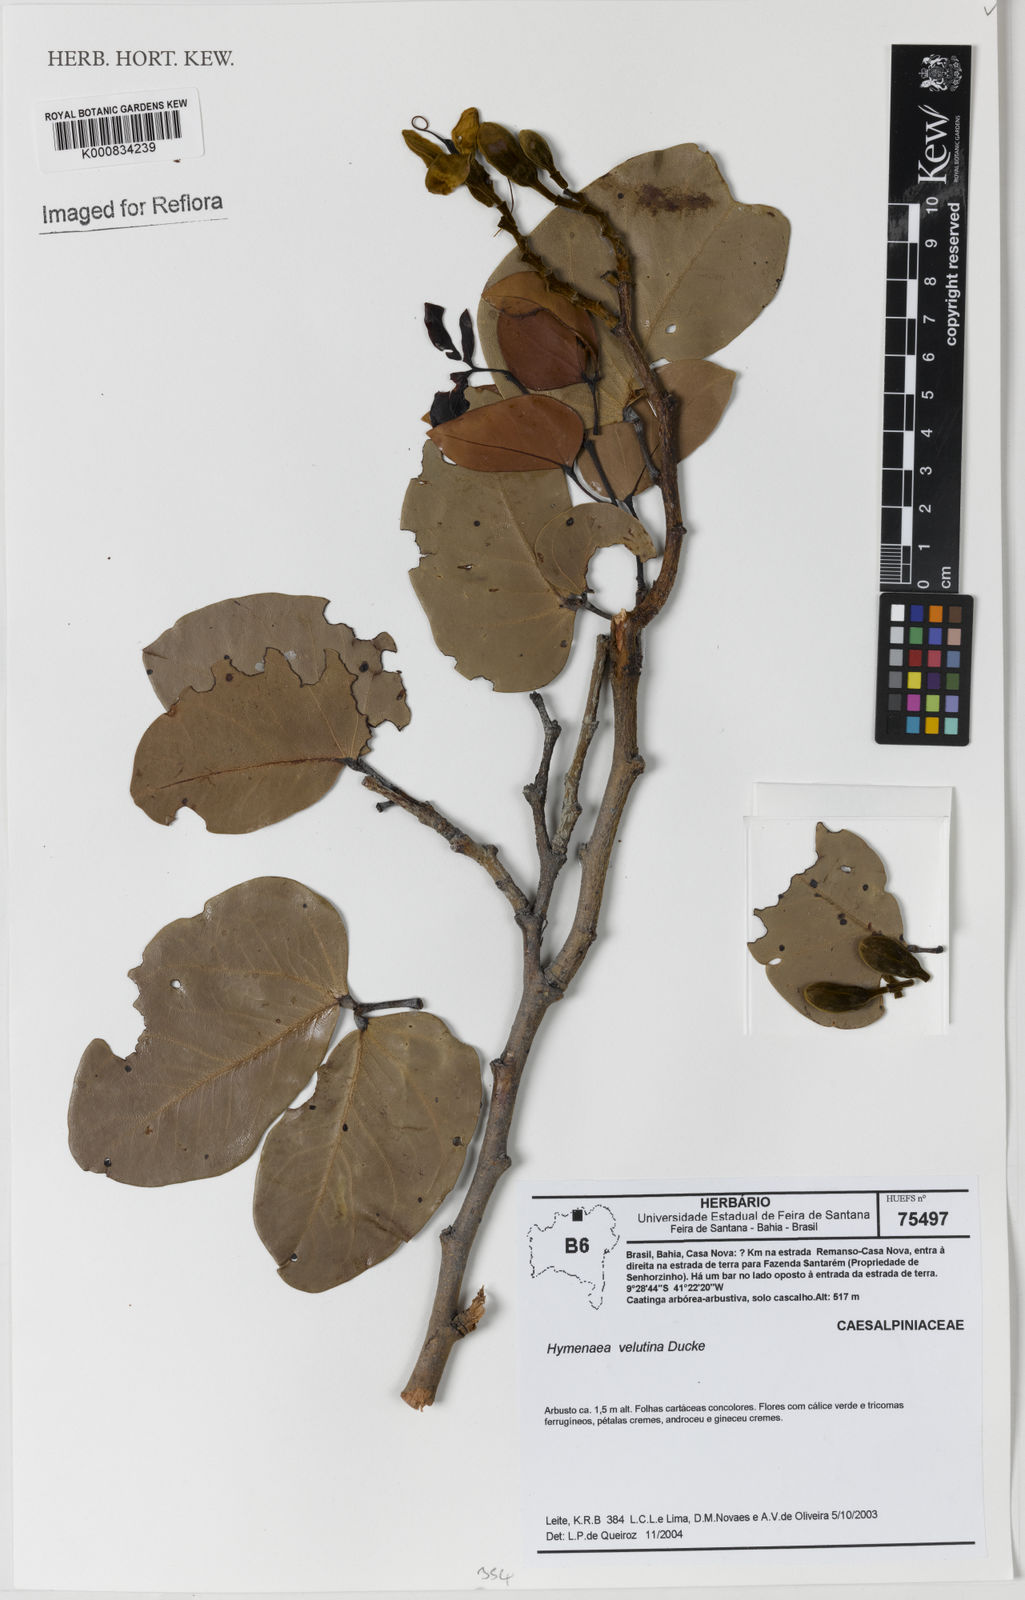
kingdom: Plantae
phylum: Tracheophyta
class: Magnoliopsida
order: Fabales
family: Fabaceae
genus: Hymenaea
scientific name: Hymenaea velutina
